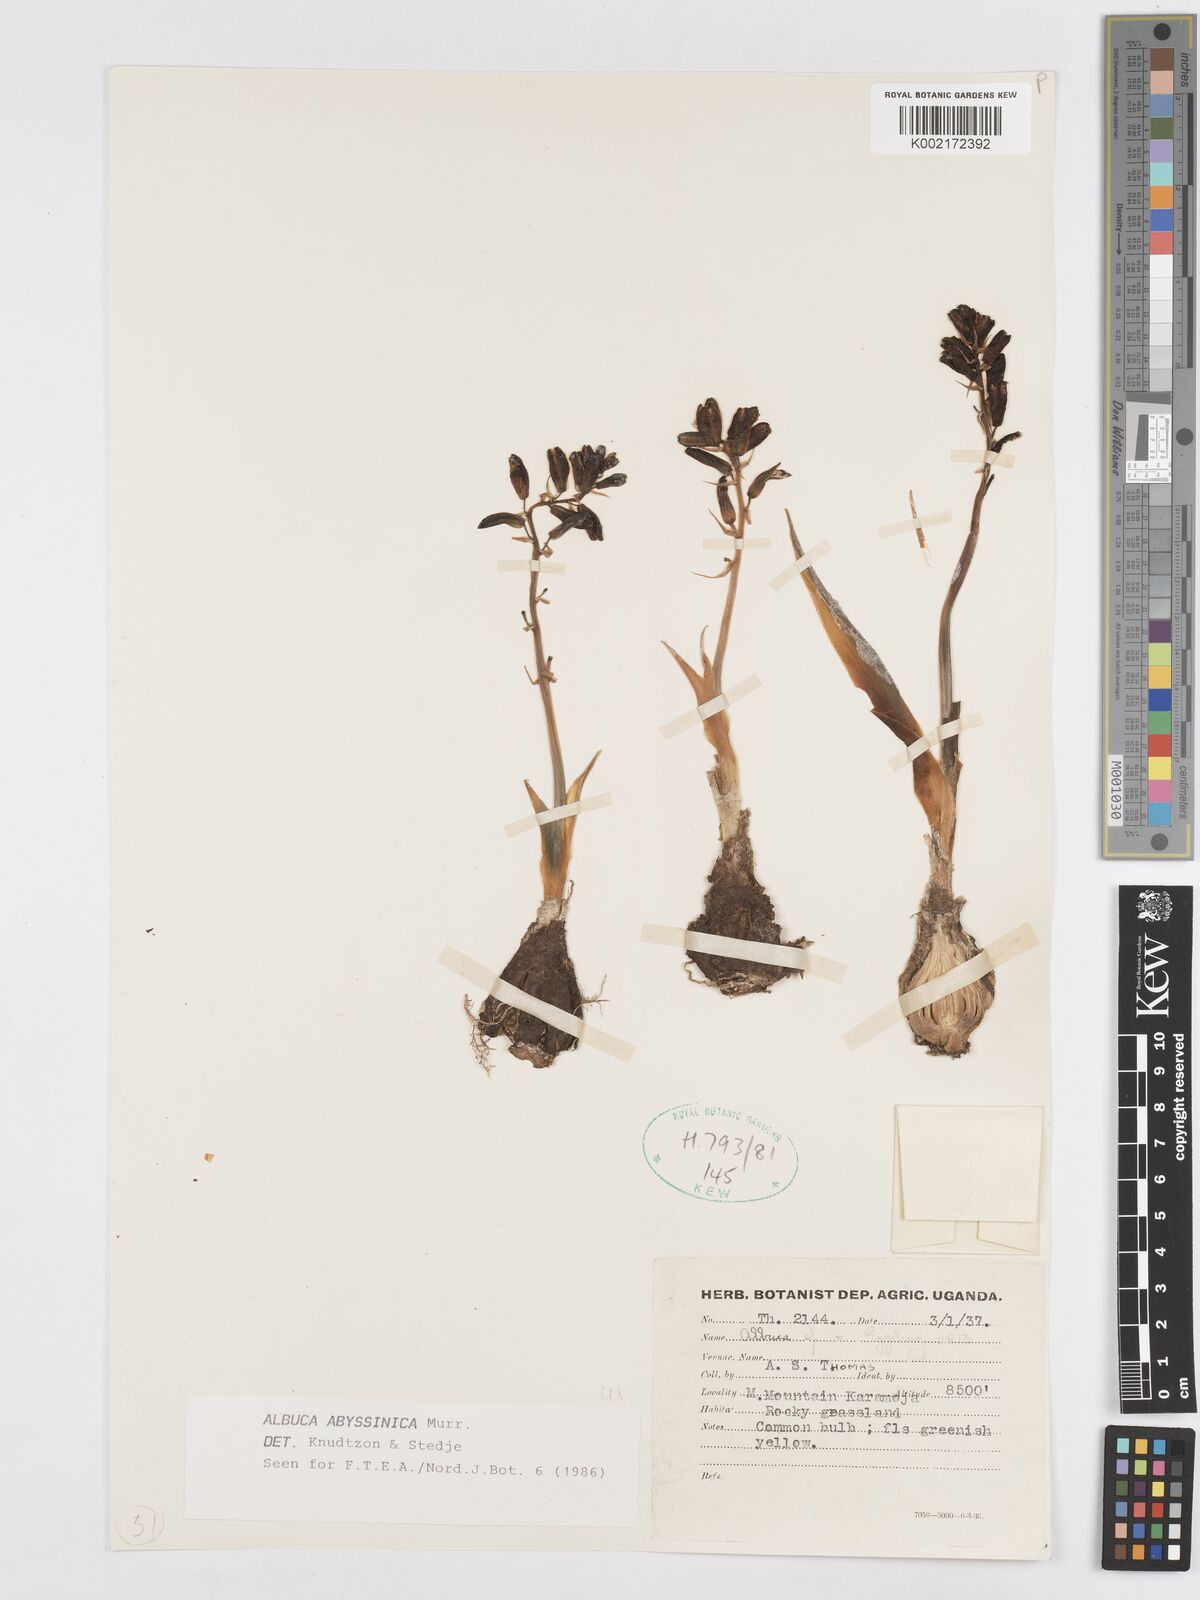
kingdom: Plantae
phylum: Tracheophyta
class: Liliopsida
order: Asparagales
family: Asparagaceae
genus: Albuca
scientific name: Albuca abyssinica
